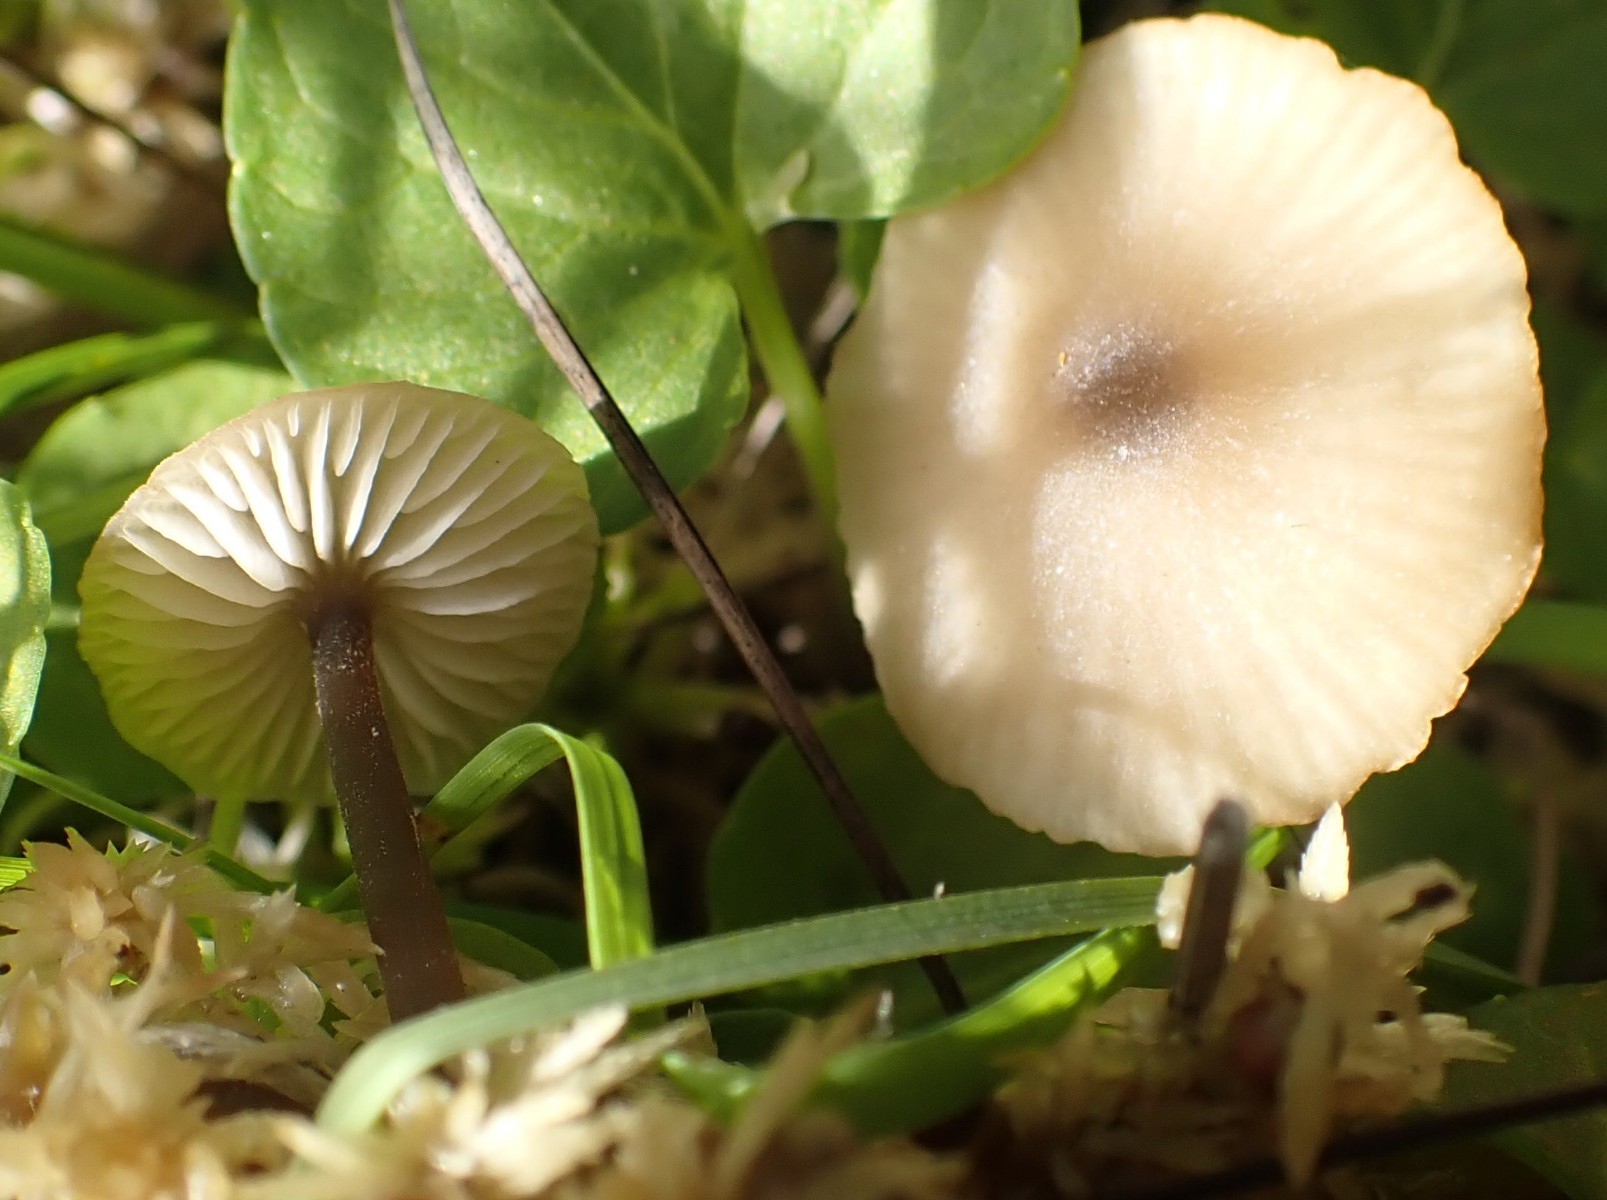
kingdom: Fungi
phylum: Basidiomycota
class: Agaricomycetes
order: Agaricales
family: Lyophyllaceae
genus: Sphagnurus
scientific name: Sphagnurus paluster
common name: tørvemos-gråblad
